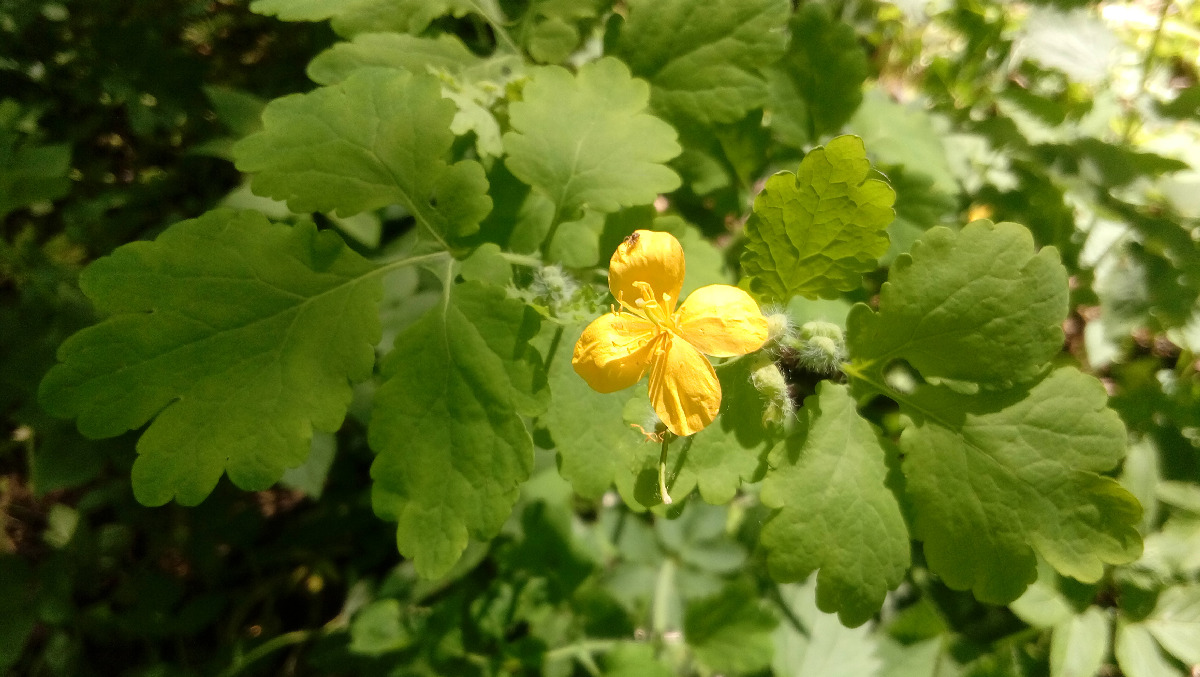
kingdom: Plantae
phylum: Tracheophyta
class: Magnoliopsida
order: Ranunculales
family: Papaveraceae
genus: Chelidonium
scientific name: Chelidonium majus
